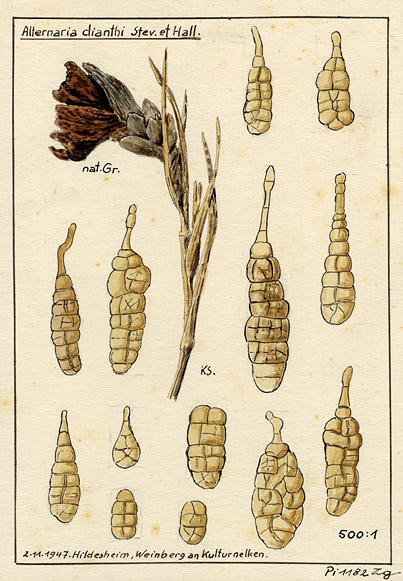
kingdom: Plantae
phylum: Tracheophyta
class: Magnoliopsida
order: Caryophyllales
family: Caryophyllaceae
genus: Dianthus
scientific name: Dianthus
